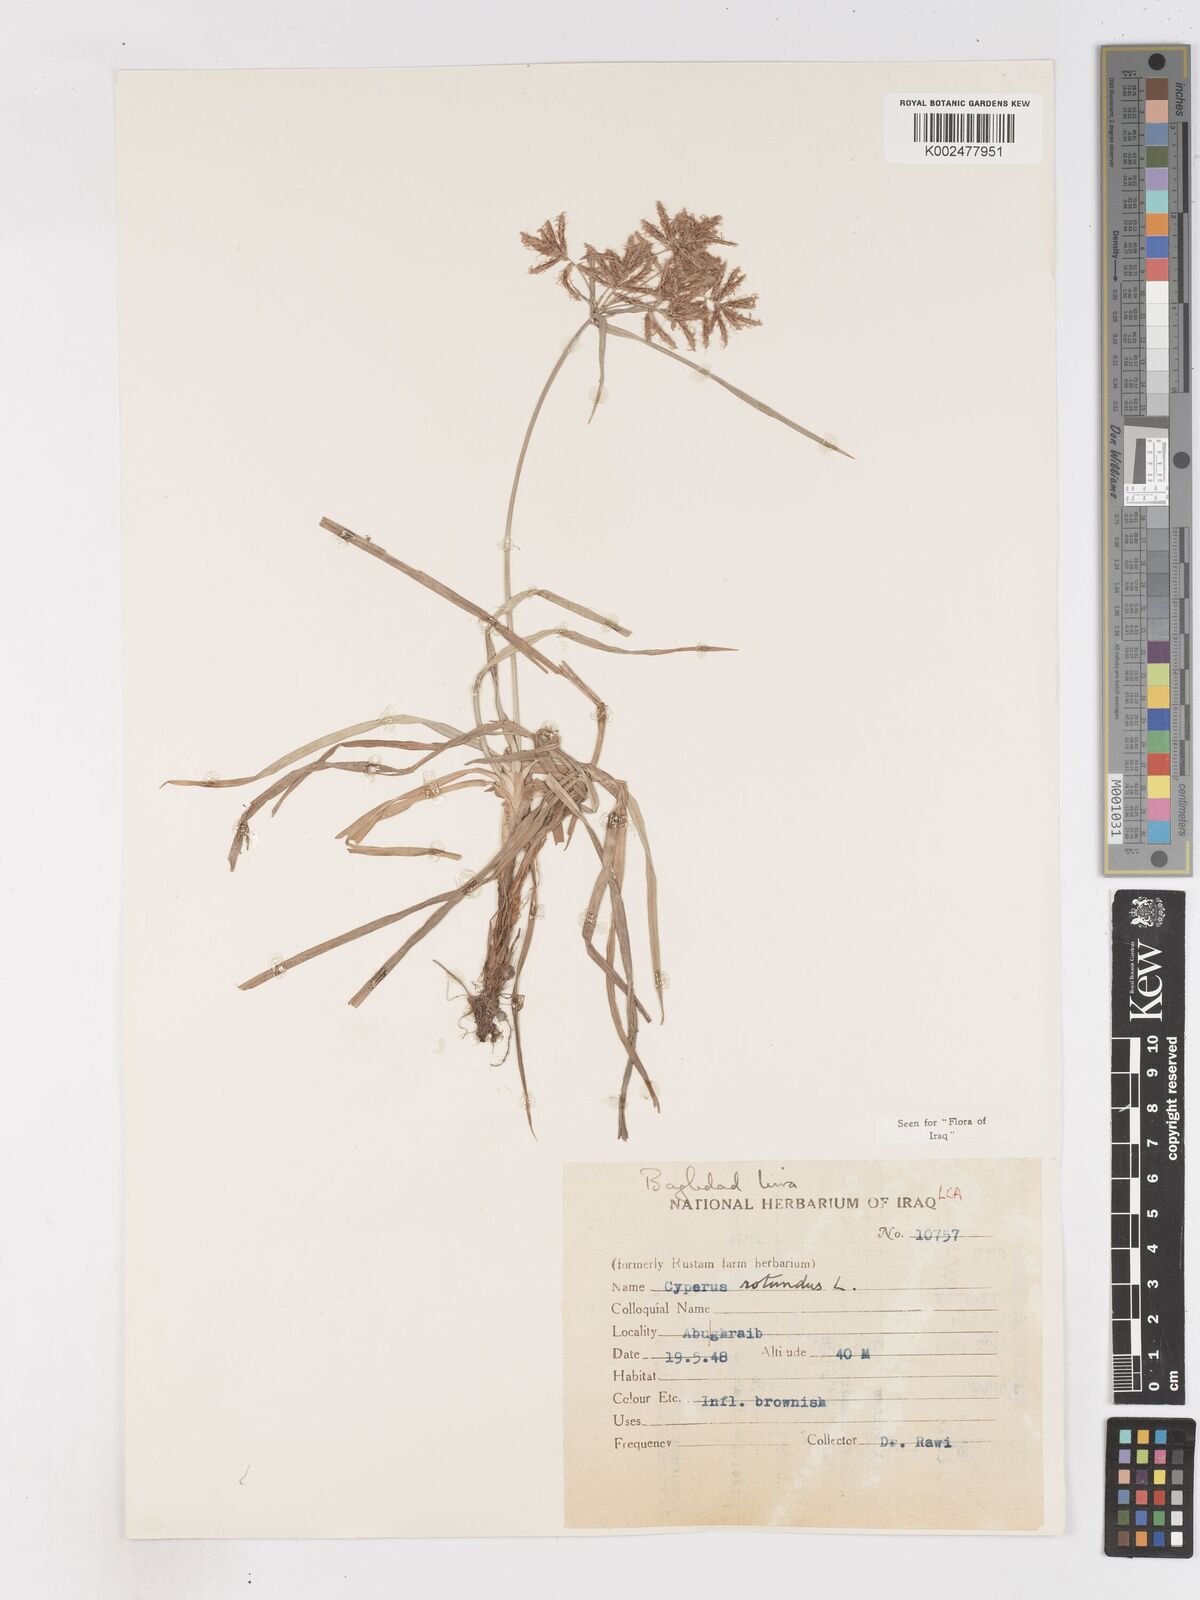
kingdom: Plantae
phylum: Tracheophyta
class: Liliopsida
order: Poales
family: Cyperaceae
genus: Cyperus
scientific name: Cyperus rotundus
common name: Nutgrass
